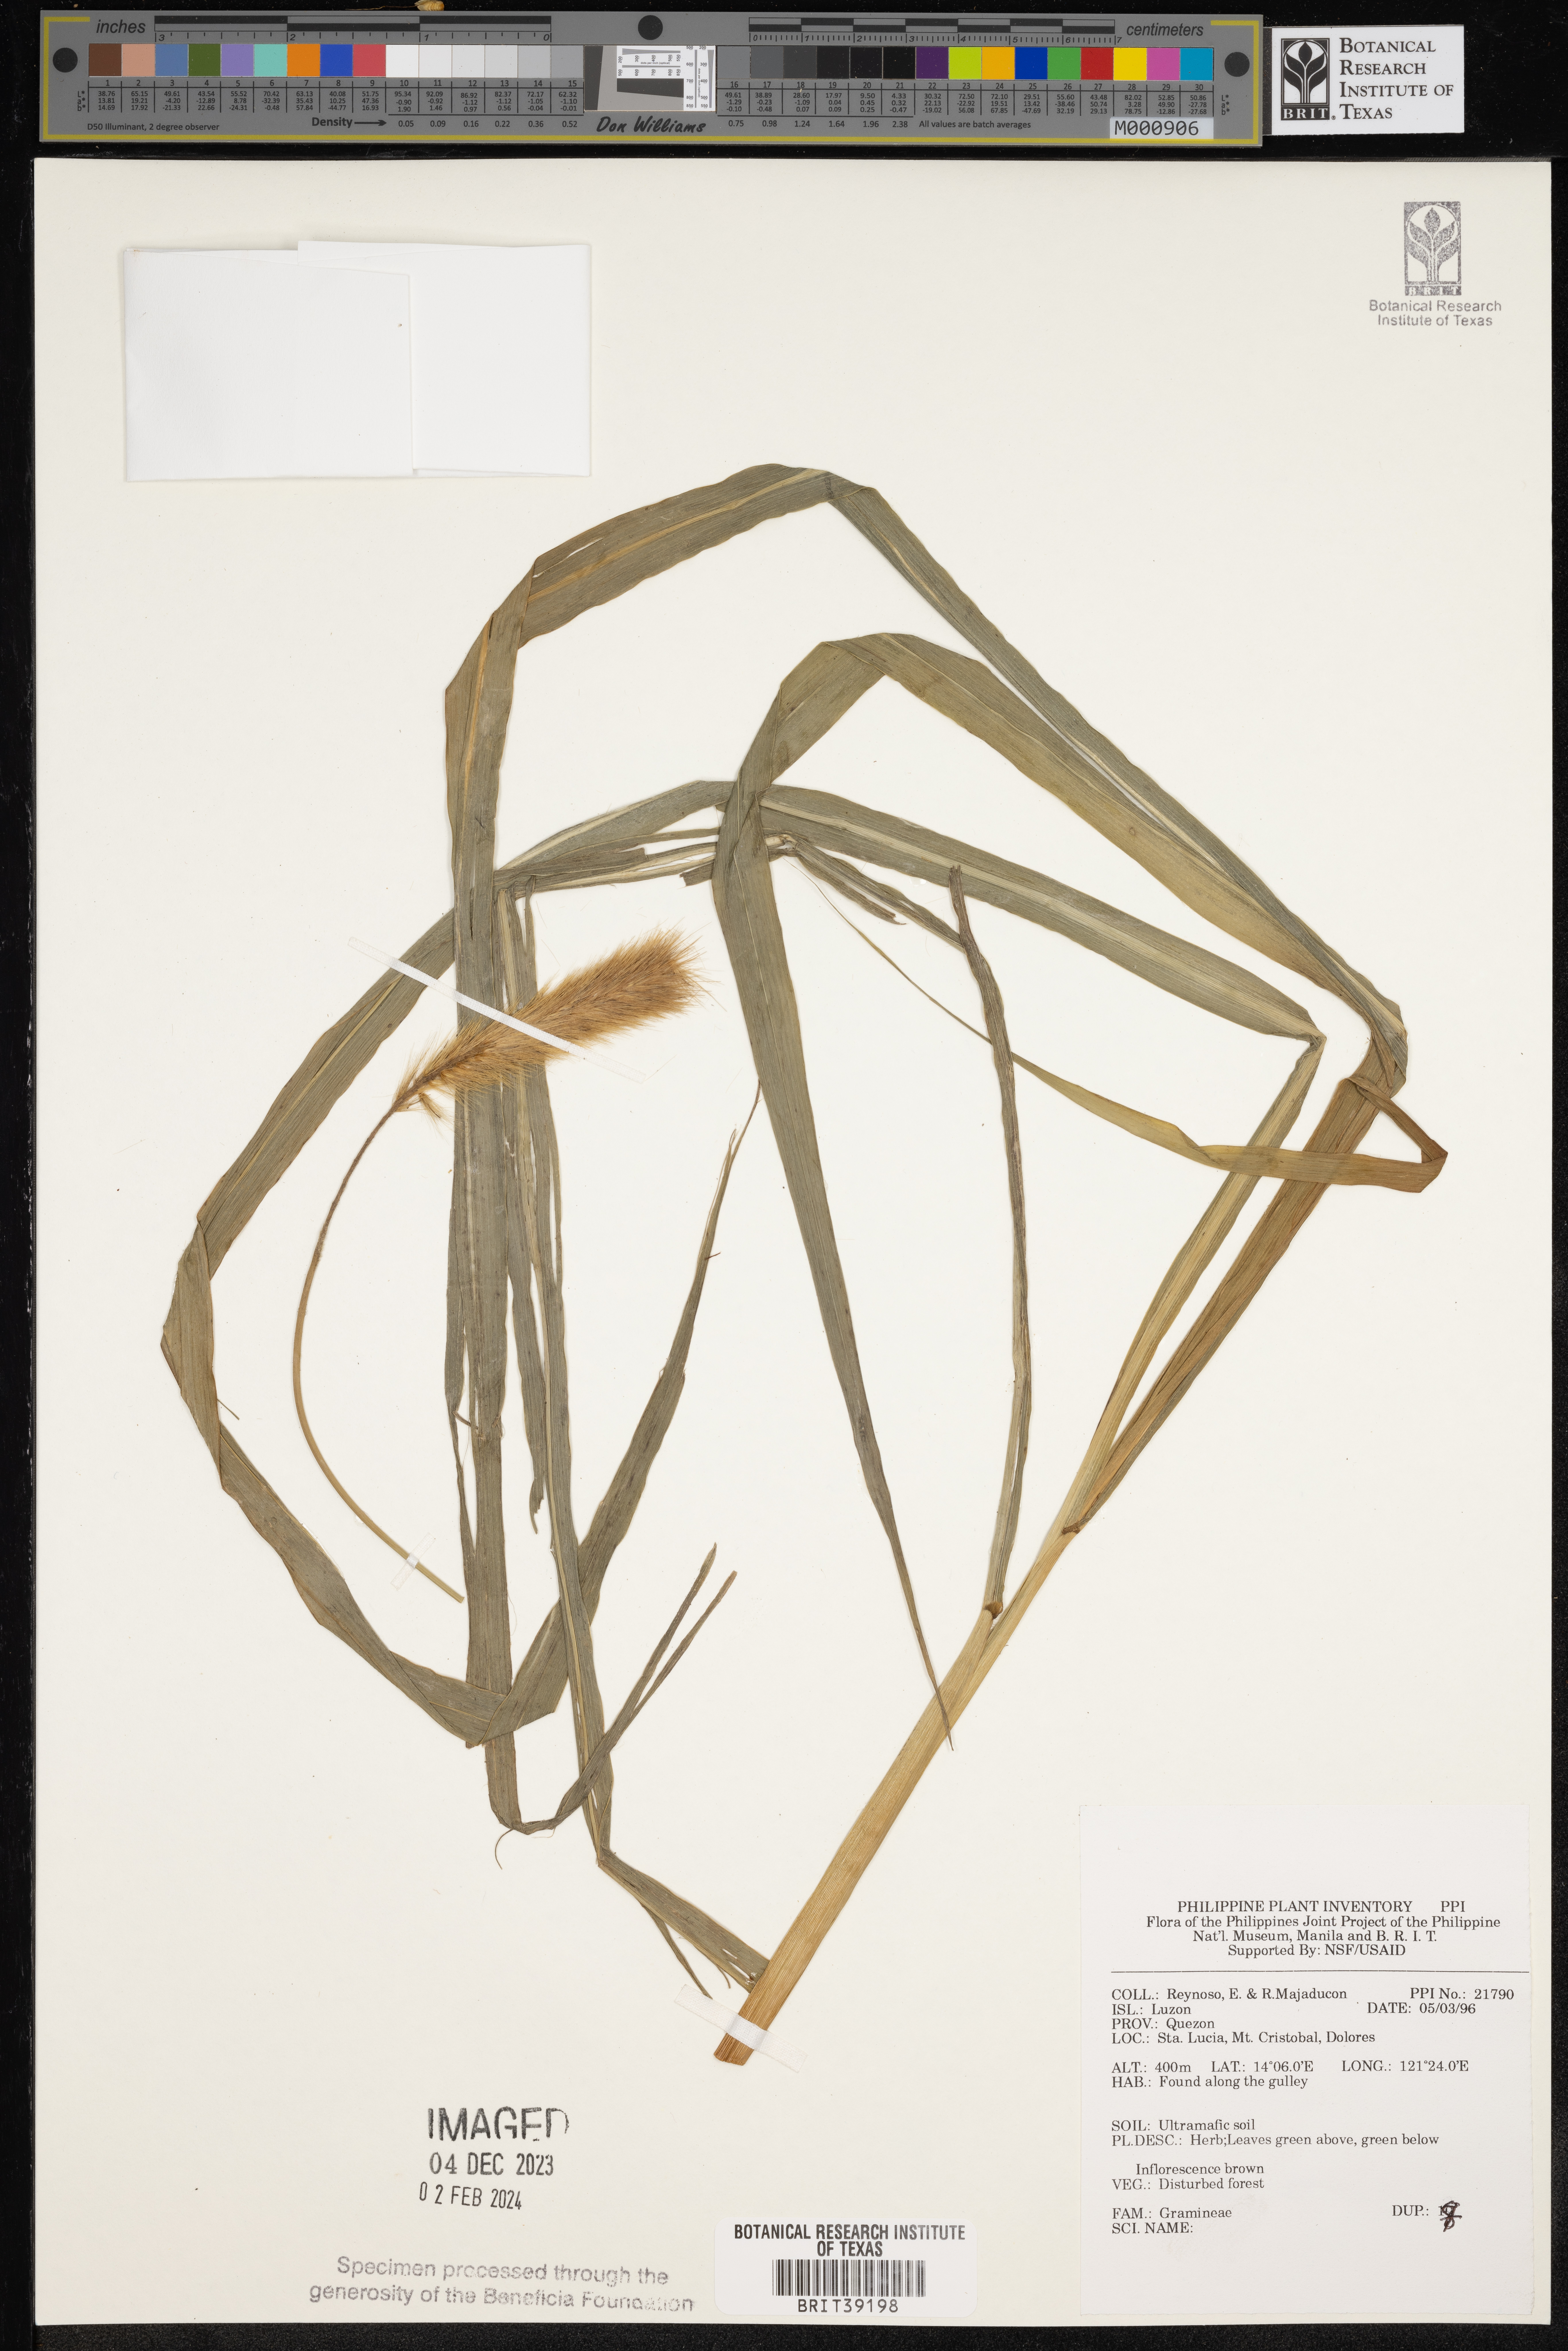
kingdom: Plantae
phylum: Tracheophyta
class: Liliopsida
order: Poales
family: Poaceae
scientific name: Poaceae
